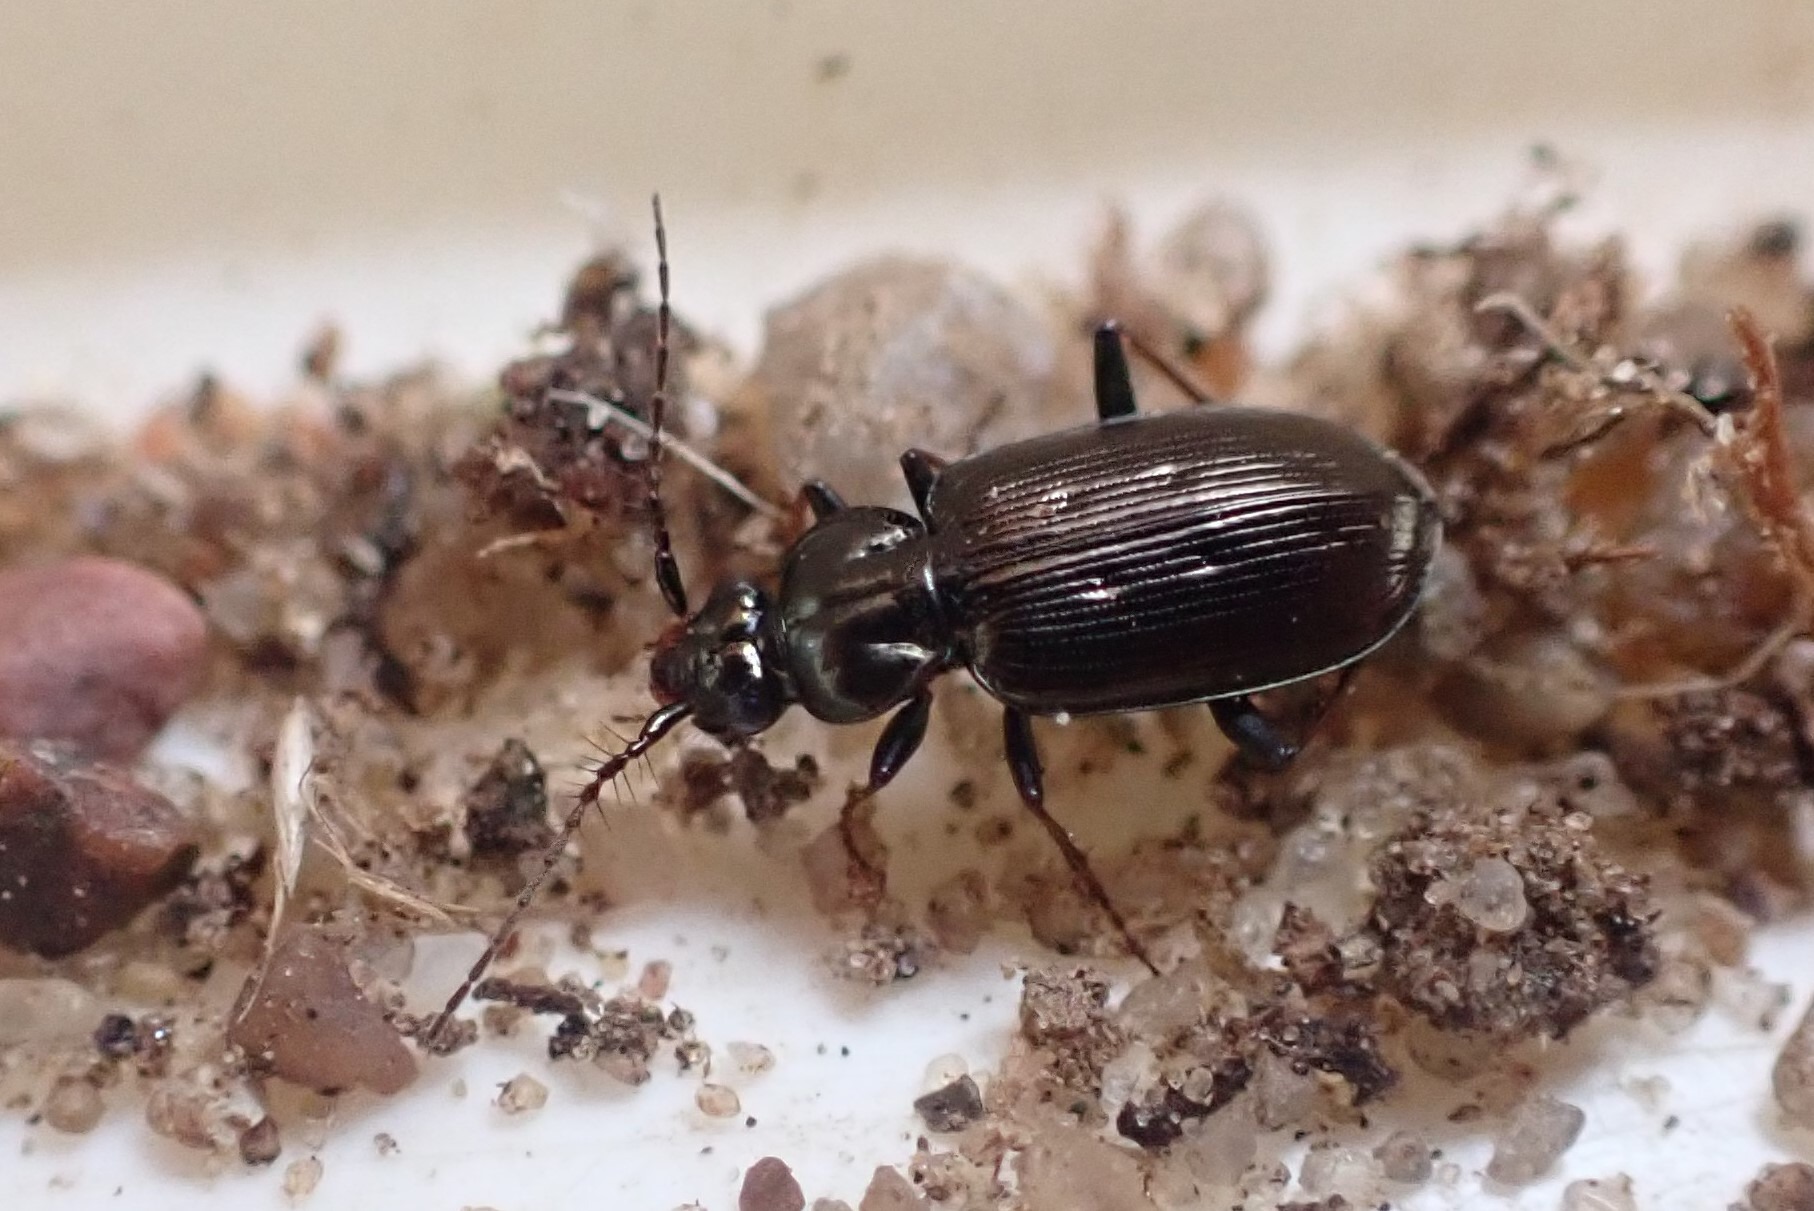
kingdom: Animalia
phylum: Arthropoda
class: Insecta
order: Coleoptera
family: Carabidae
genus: Loricera
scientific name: Loricera pilicornis
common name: Børsteløber
